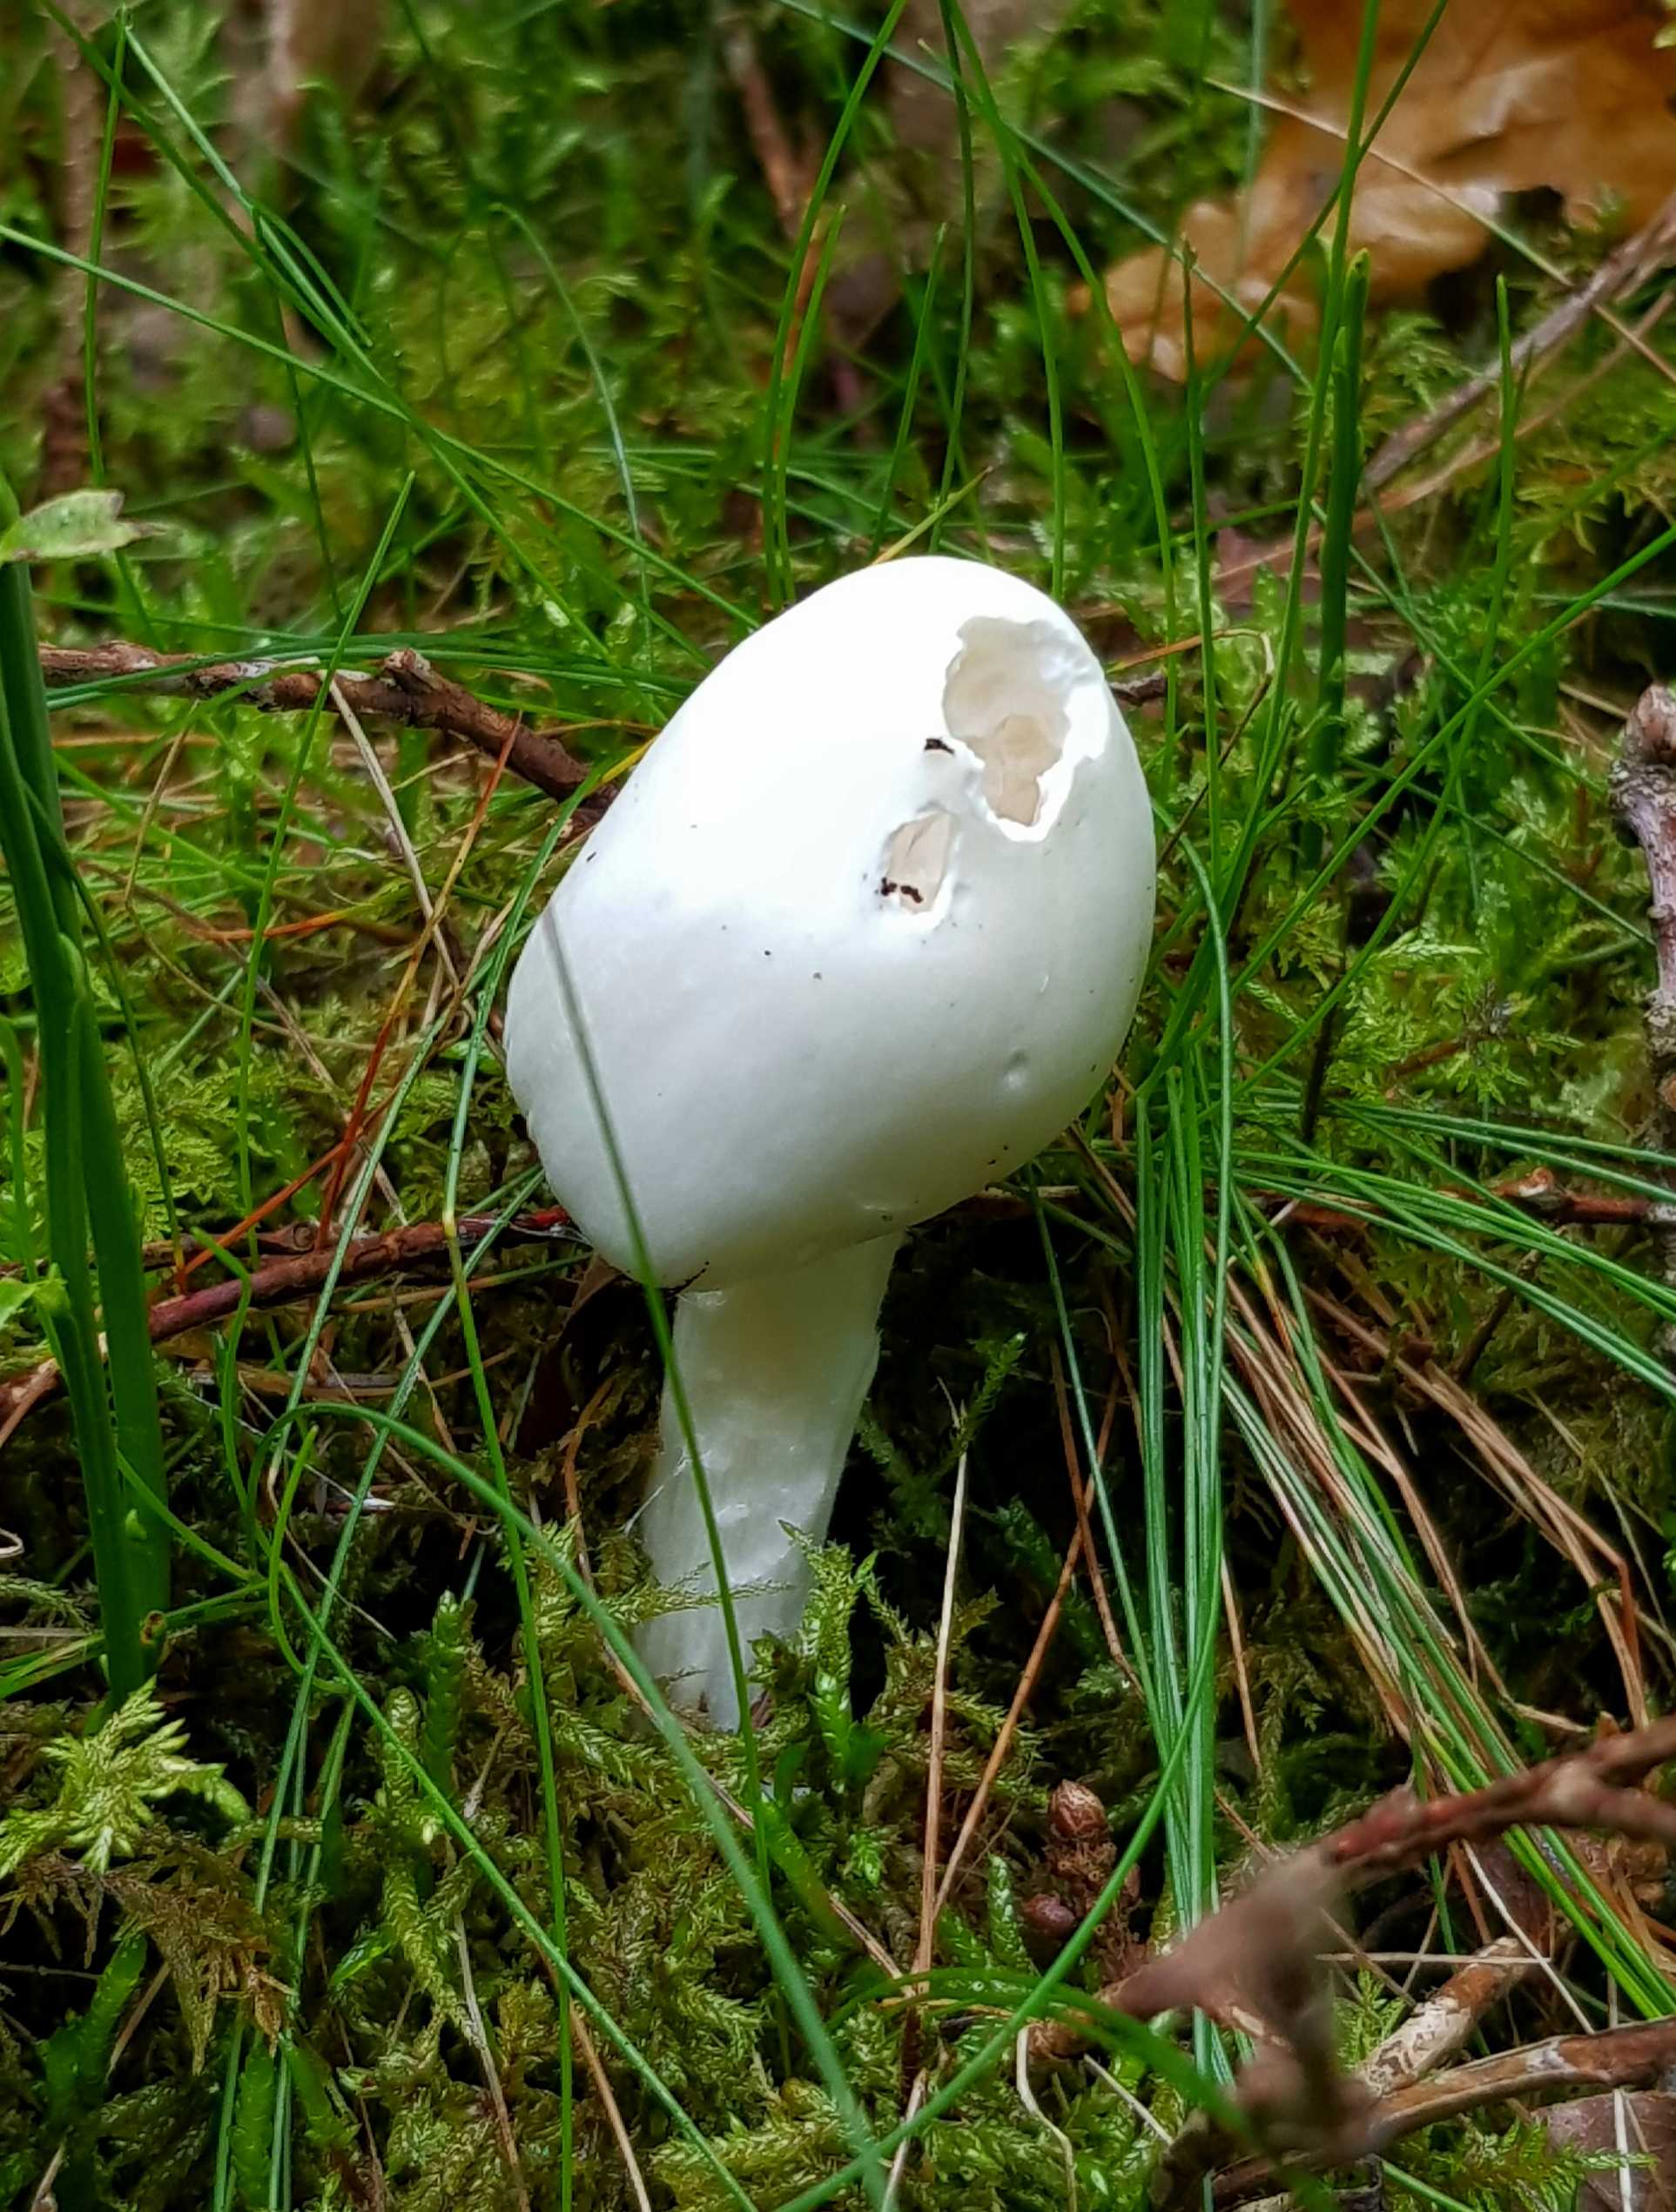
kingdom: Fungi
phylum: Basidiomycota
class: Agaricomycetes
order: Agaricales
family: Amanitaceae
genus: Amanita
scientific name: Amanita virosa
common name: snehvid fluesvamp
